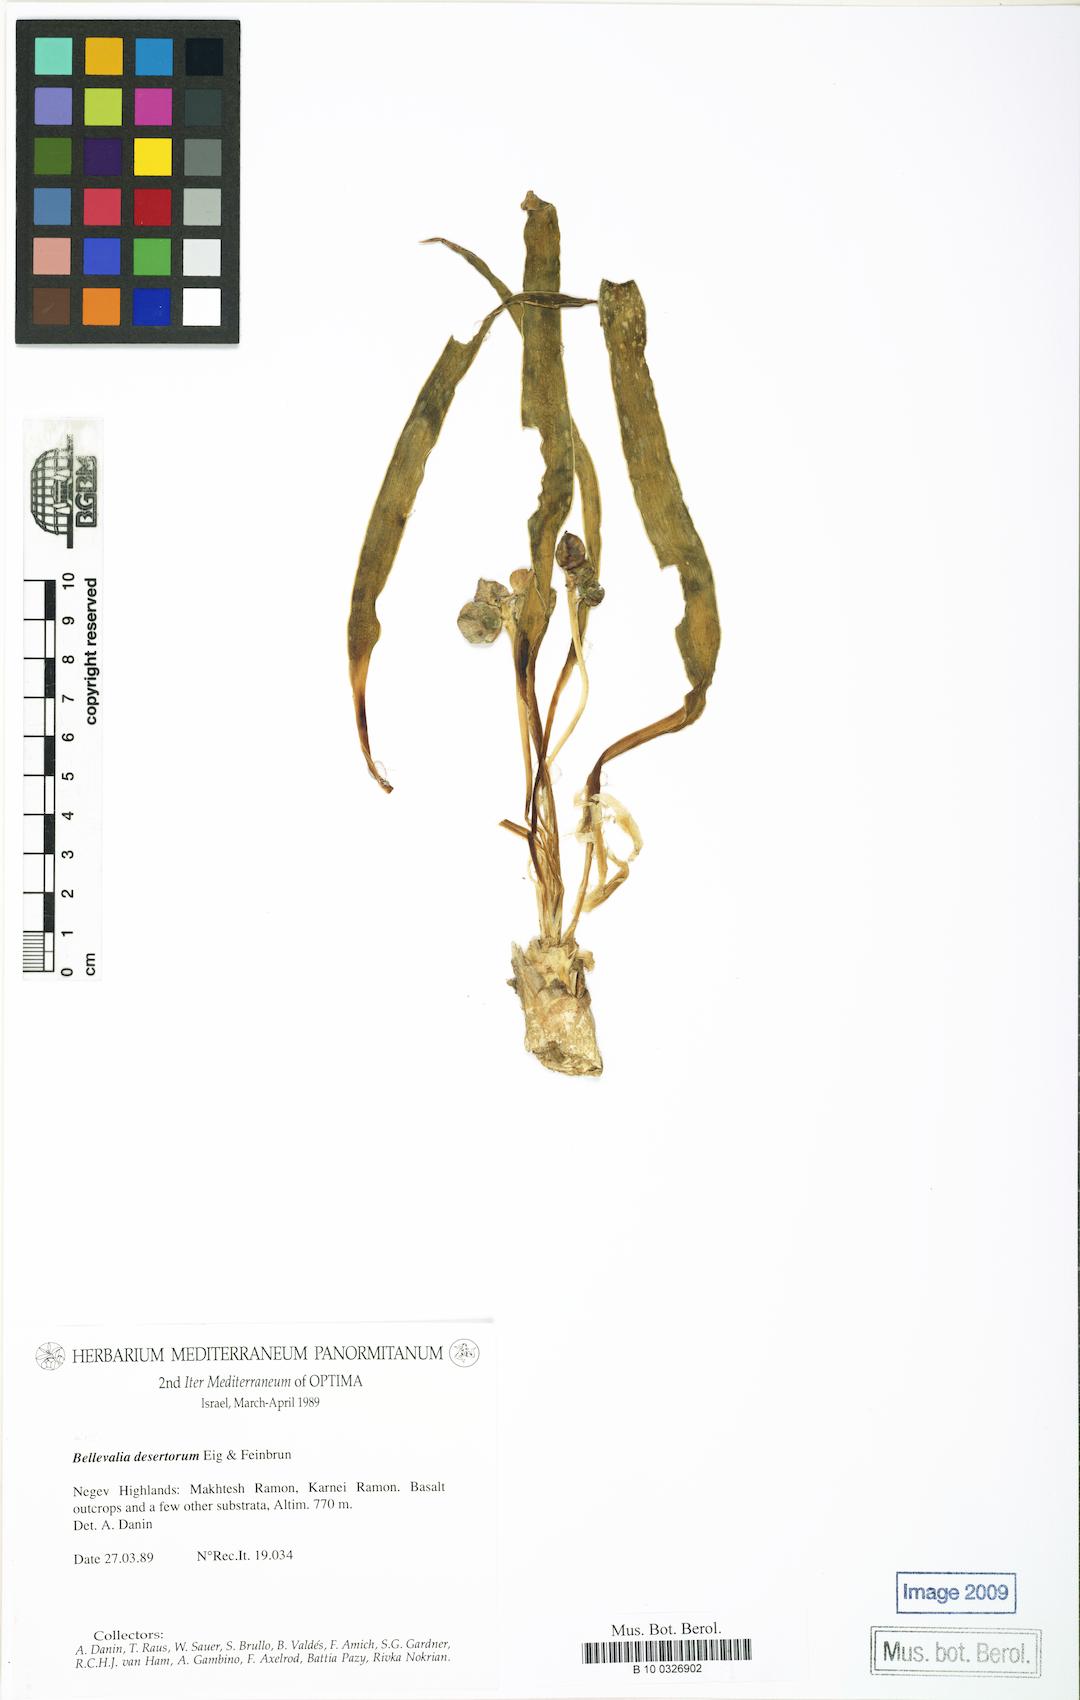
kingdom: Plantae
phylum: Tracheophyta
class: Liliopsida
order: Asparagales
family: Asparagaceae
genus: Bellevalia
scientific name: Bellevalia desertorum
